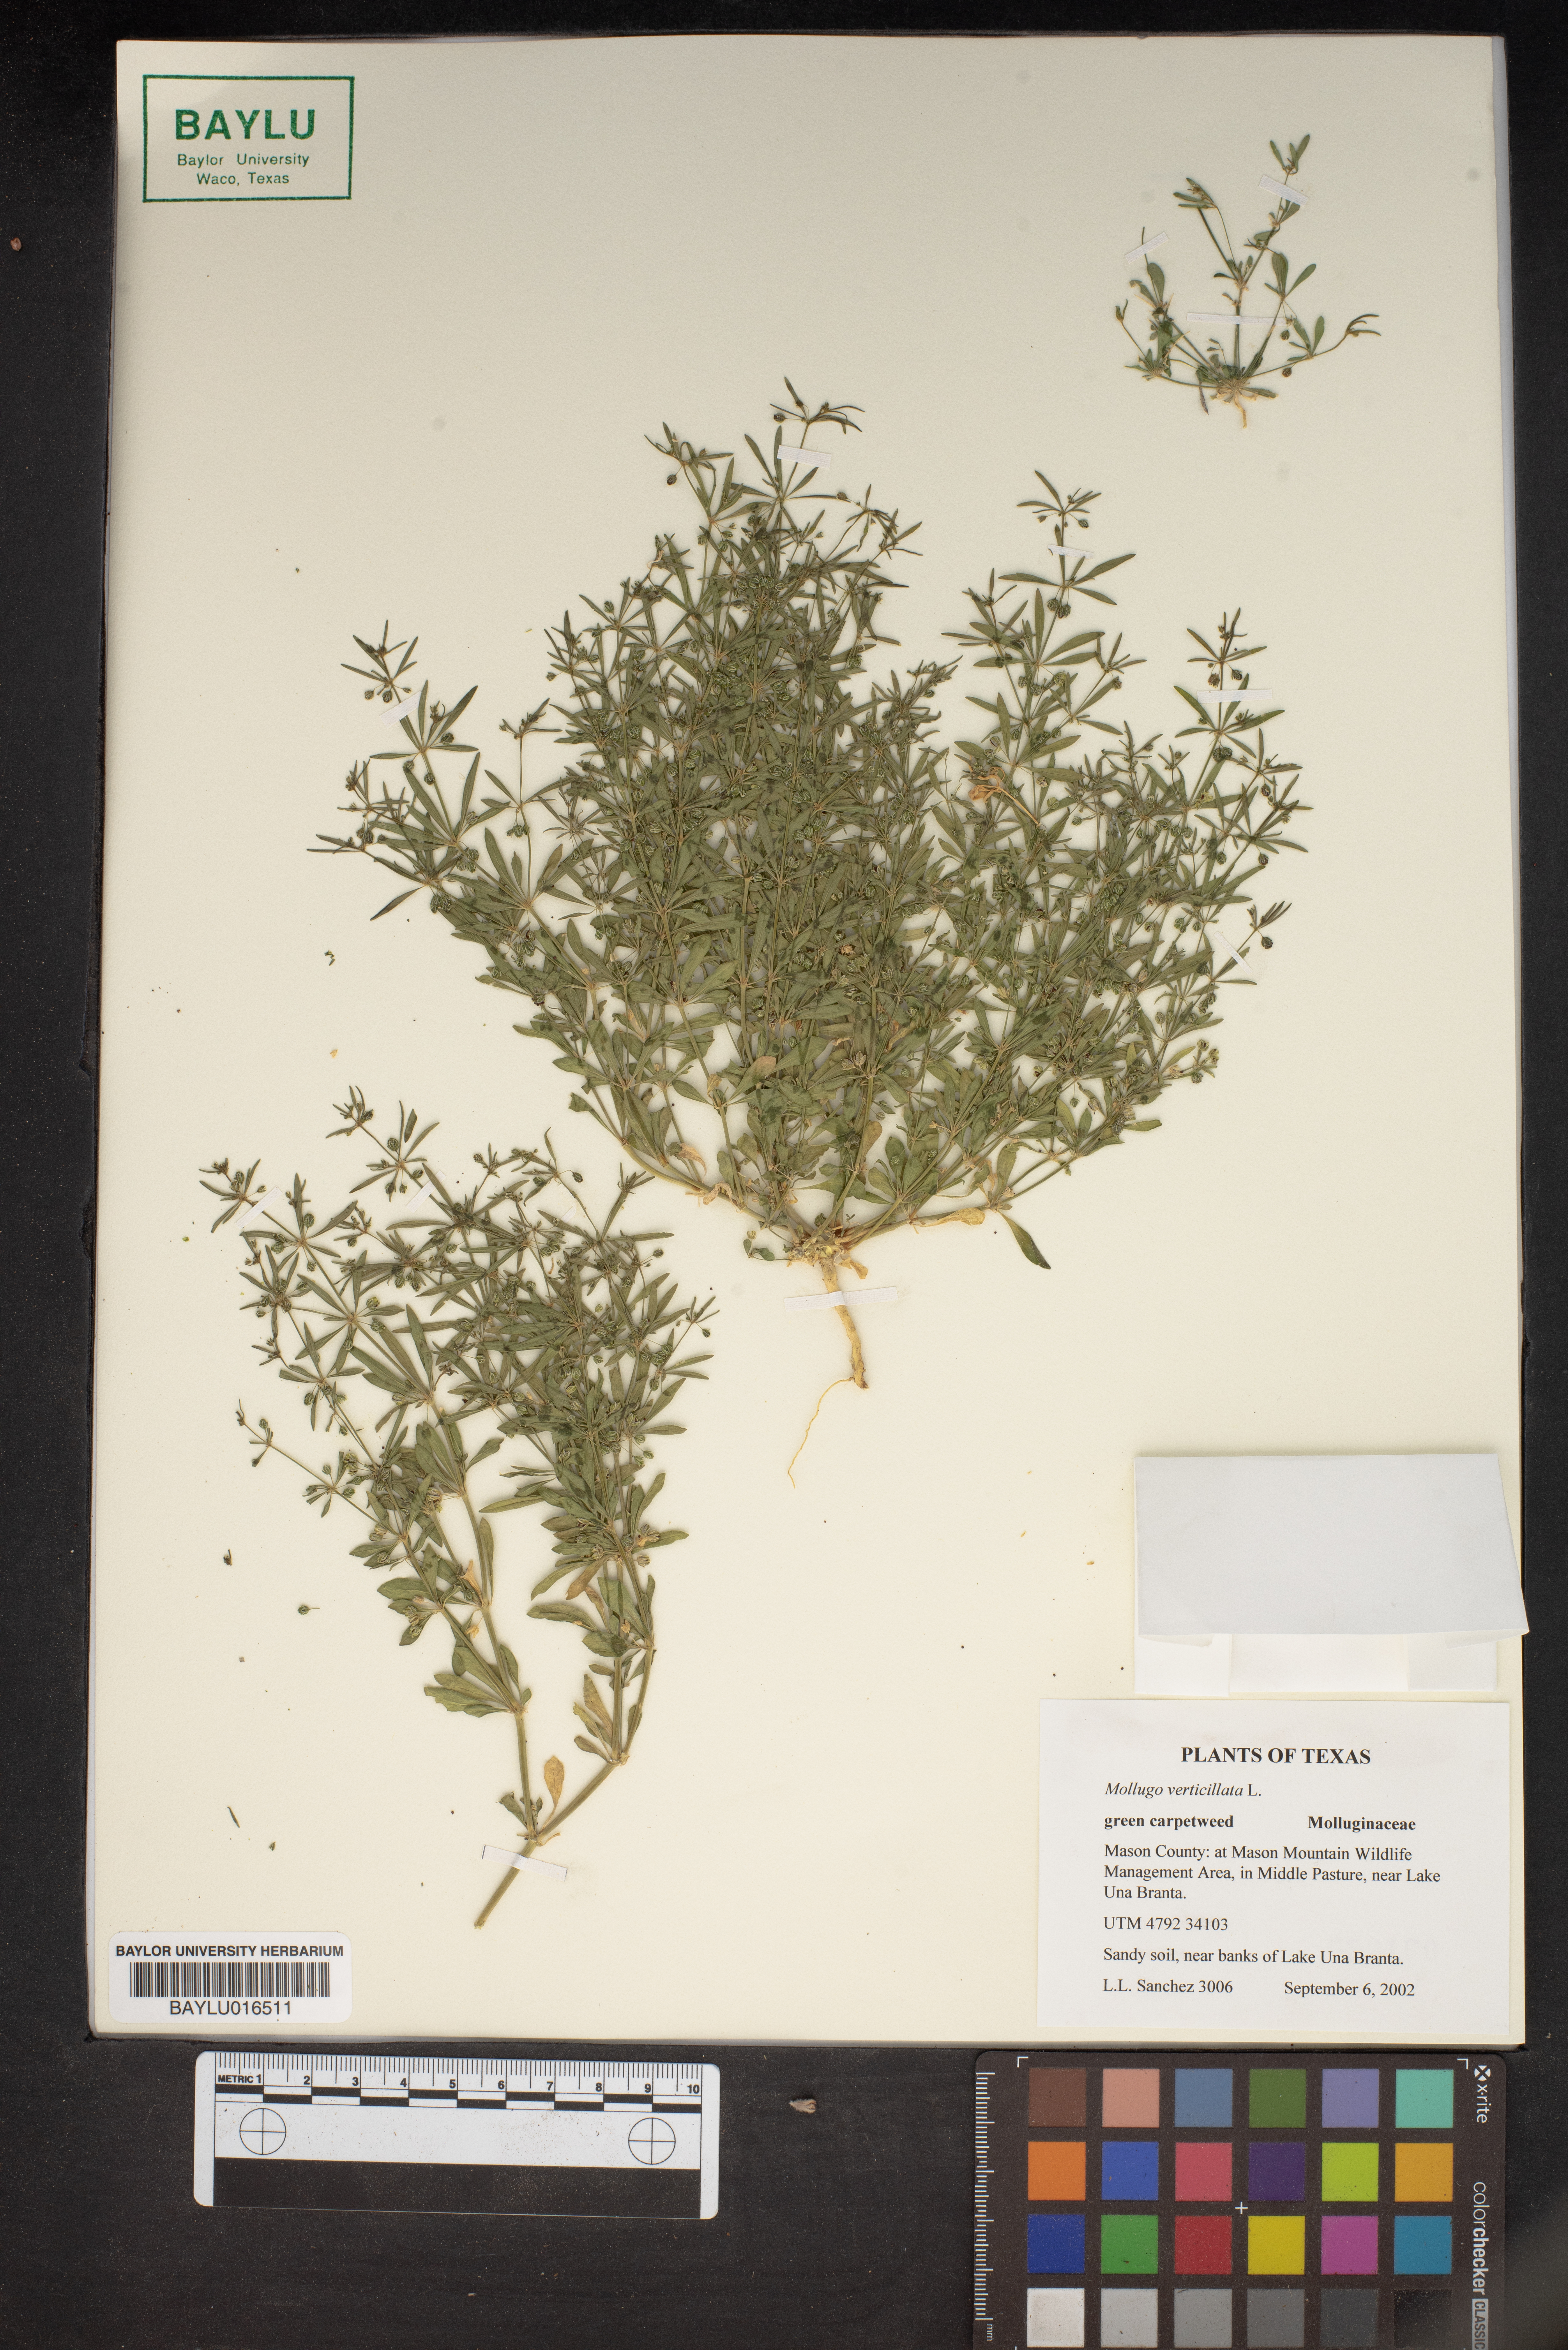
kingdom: Plantae
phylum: Tracheophyta
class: Magnoliopsida
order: Caryophyllales
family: Molluginaceae
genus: Mollugo
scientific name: Mollugo verticillata
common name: Green carpetweed
